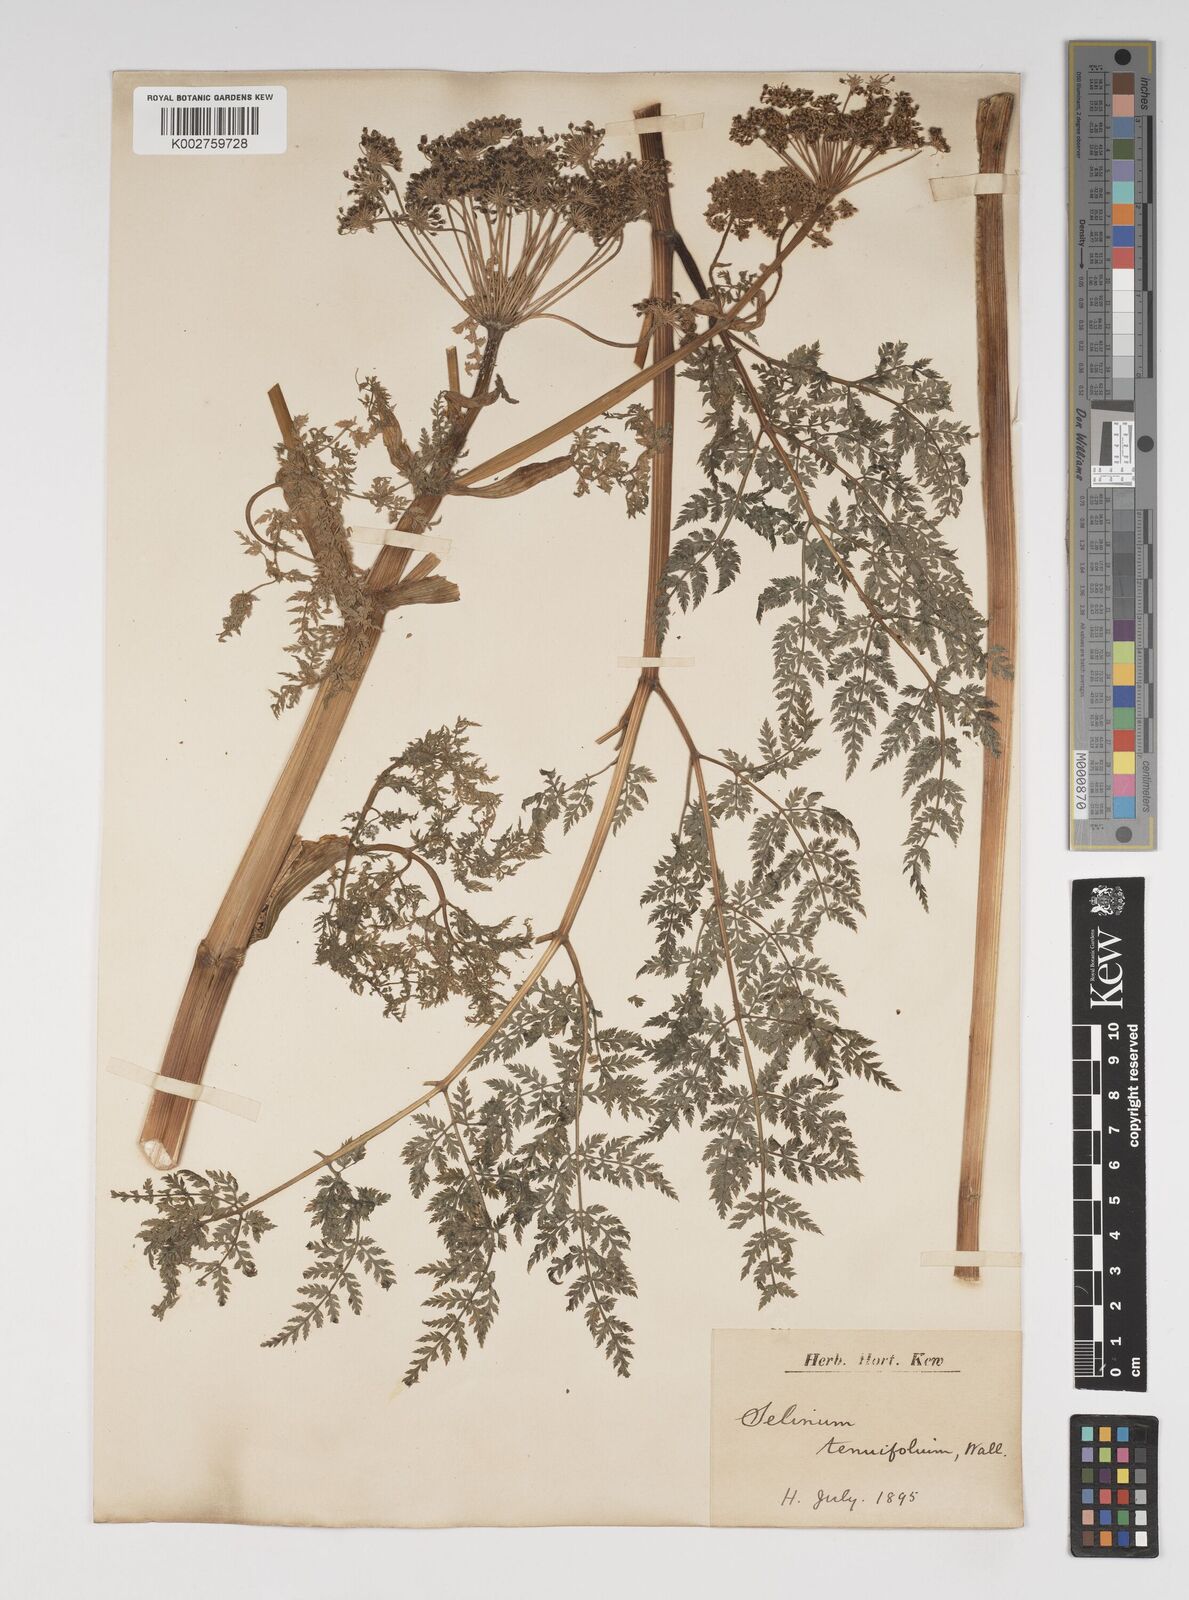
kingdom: Plantae
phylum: Tracheophyta
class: Magnoliopsida
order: Apiales
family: Apiaceae
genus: Selinum
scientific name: Selinum carvifolia
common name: Cambridge milk-parsley
